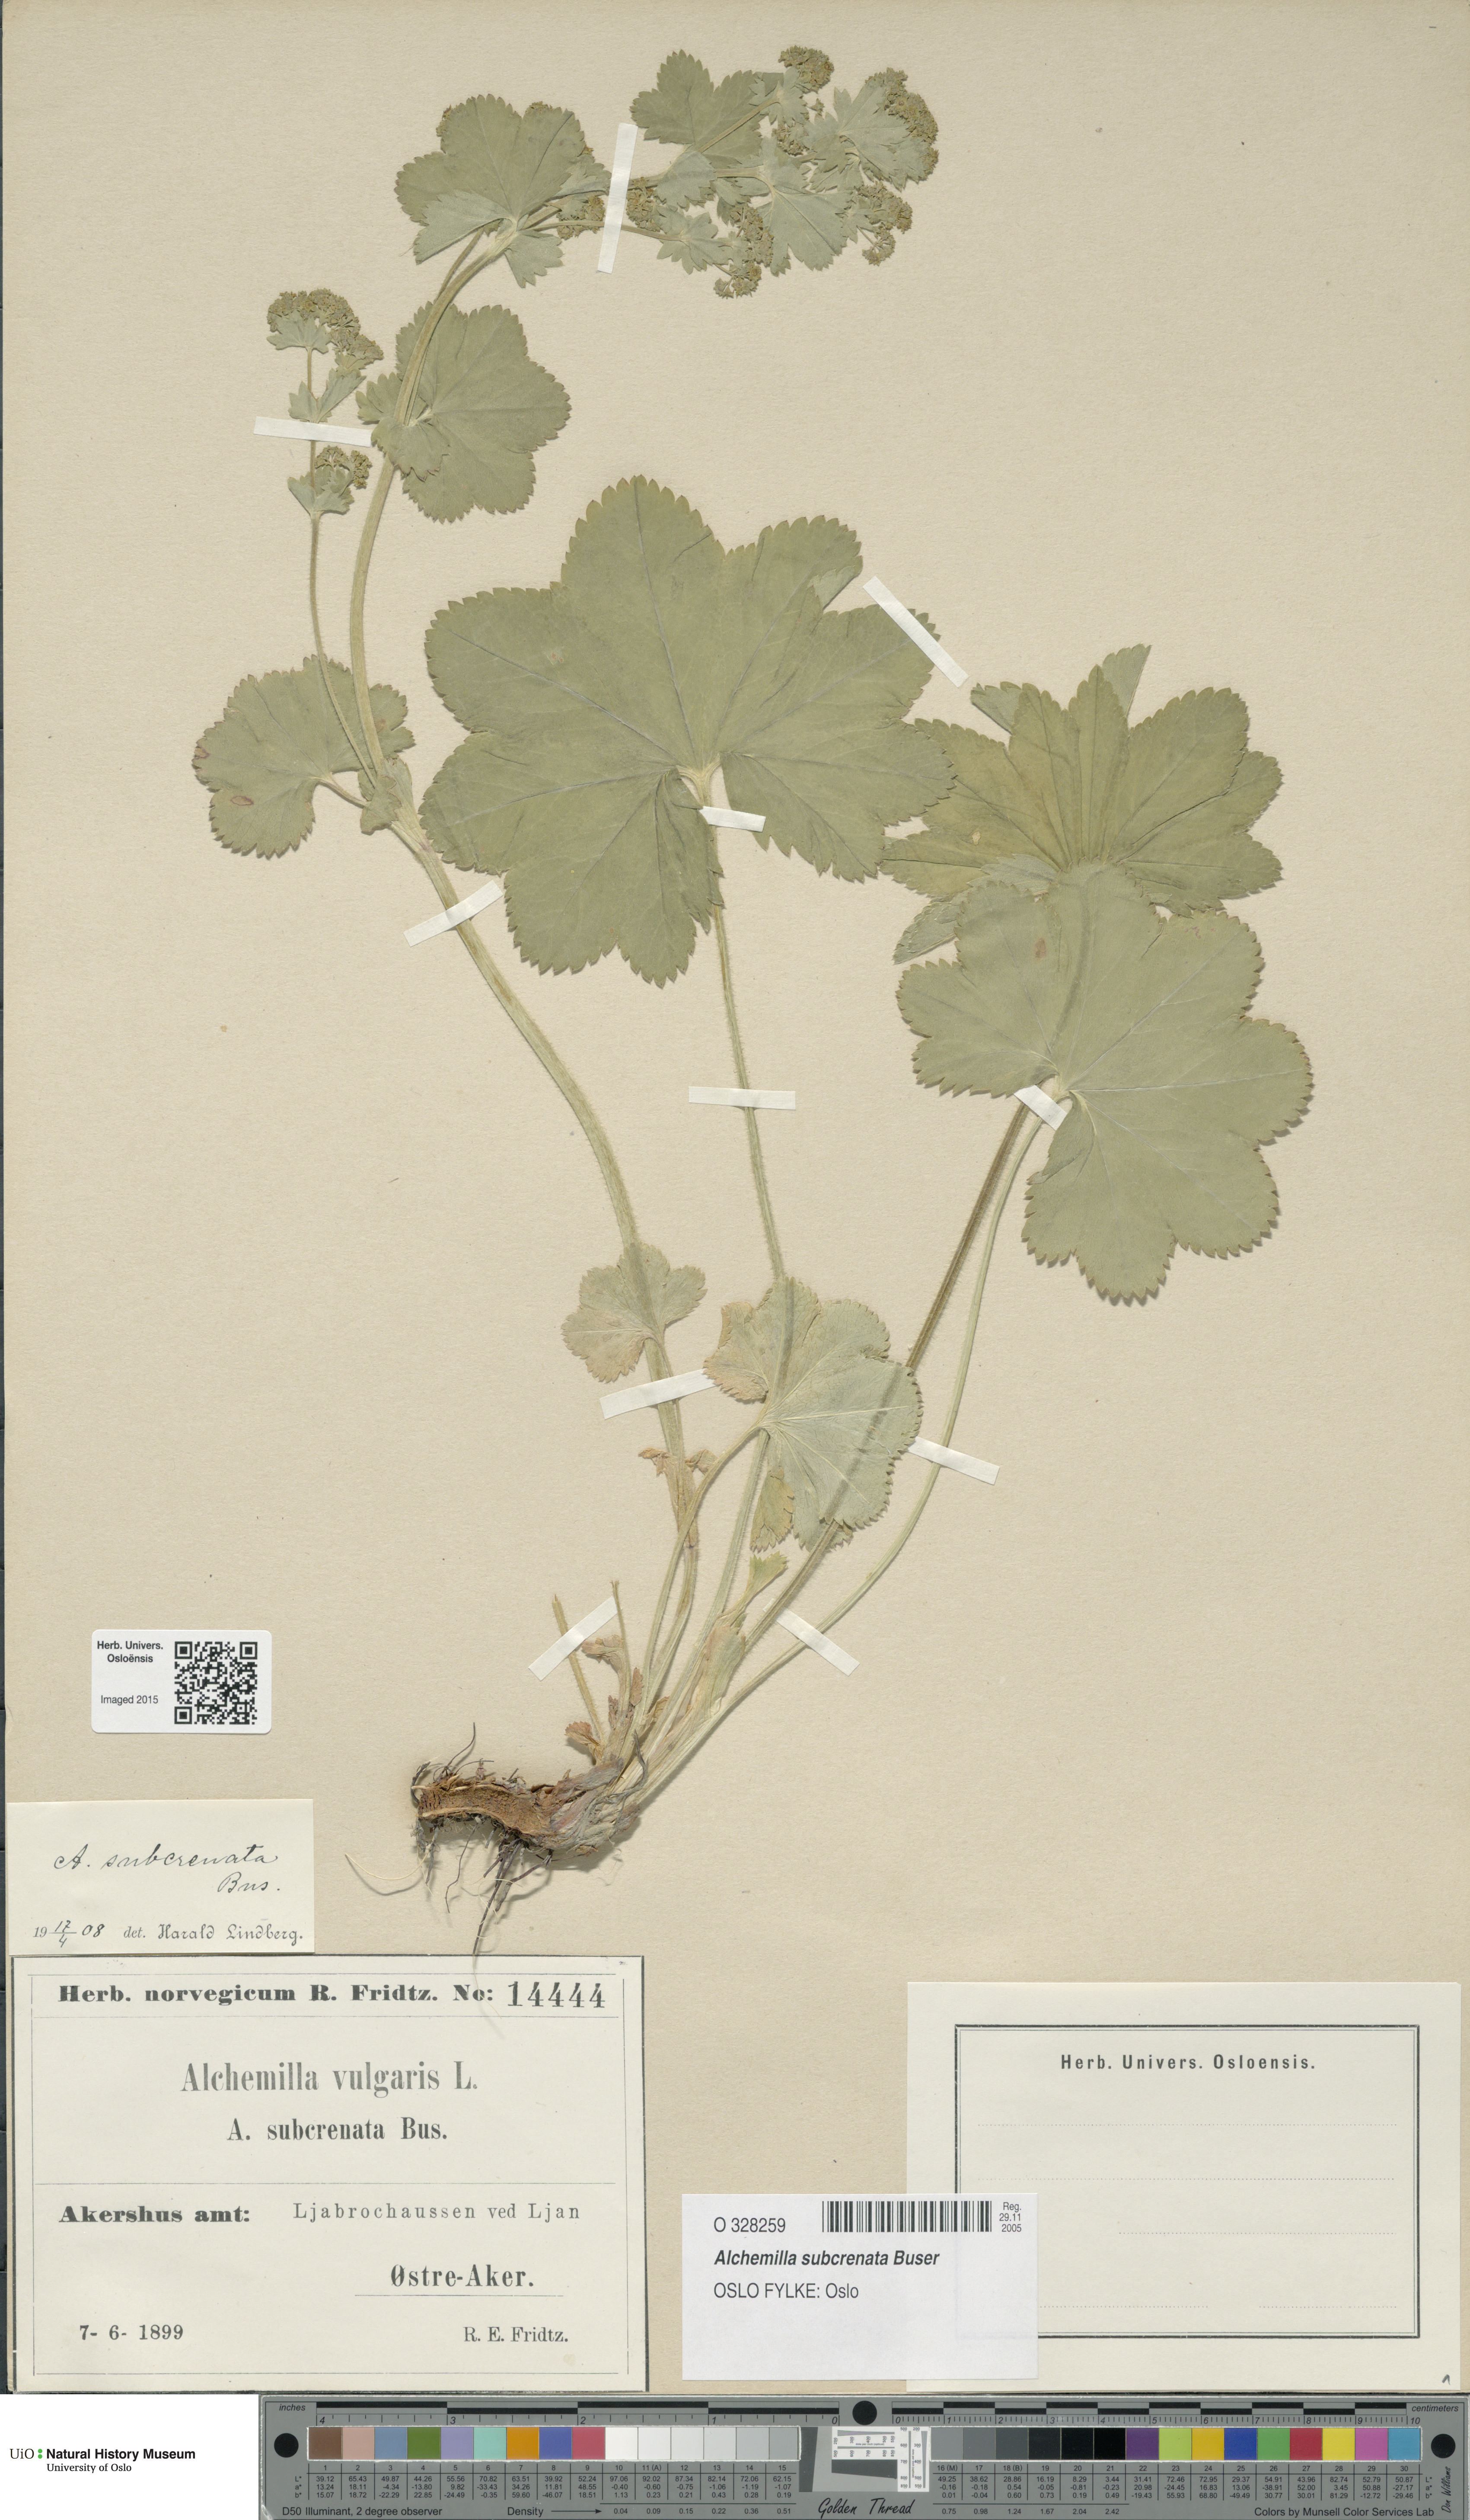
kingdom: Plantae
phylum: Tracheophyta
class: Magnoliopsida
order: Rosales
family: Rosaceae
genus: Alchemilla
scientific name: Alchemilla subcrenata
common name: Broadtooth lady's mantle
